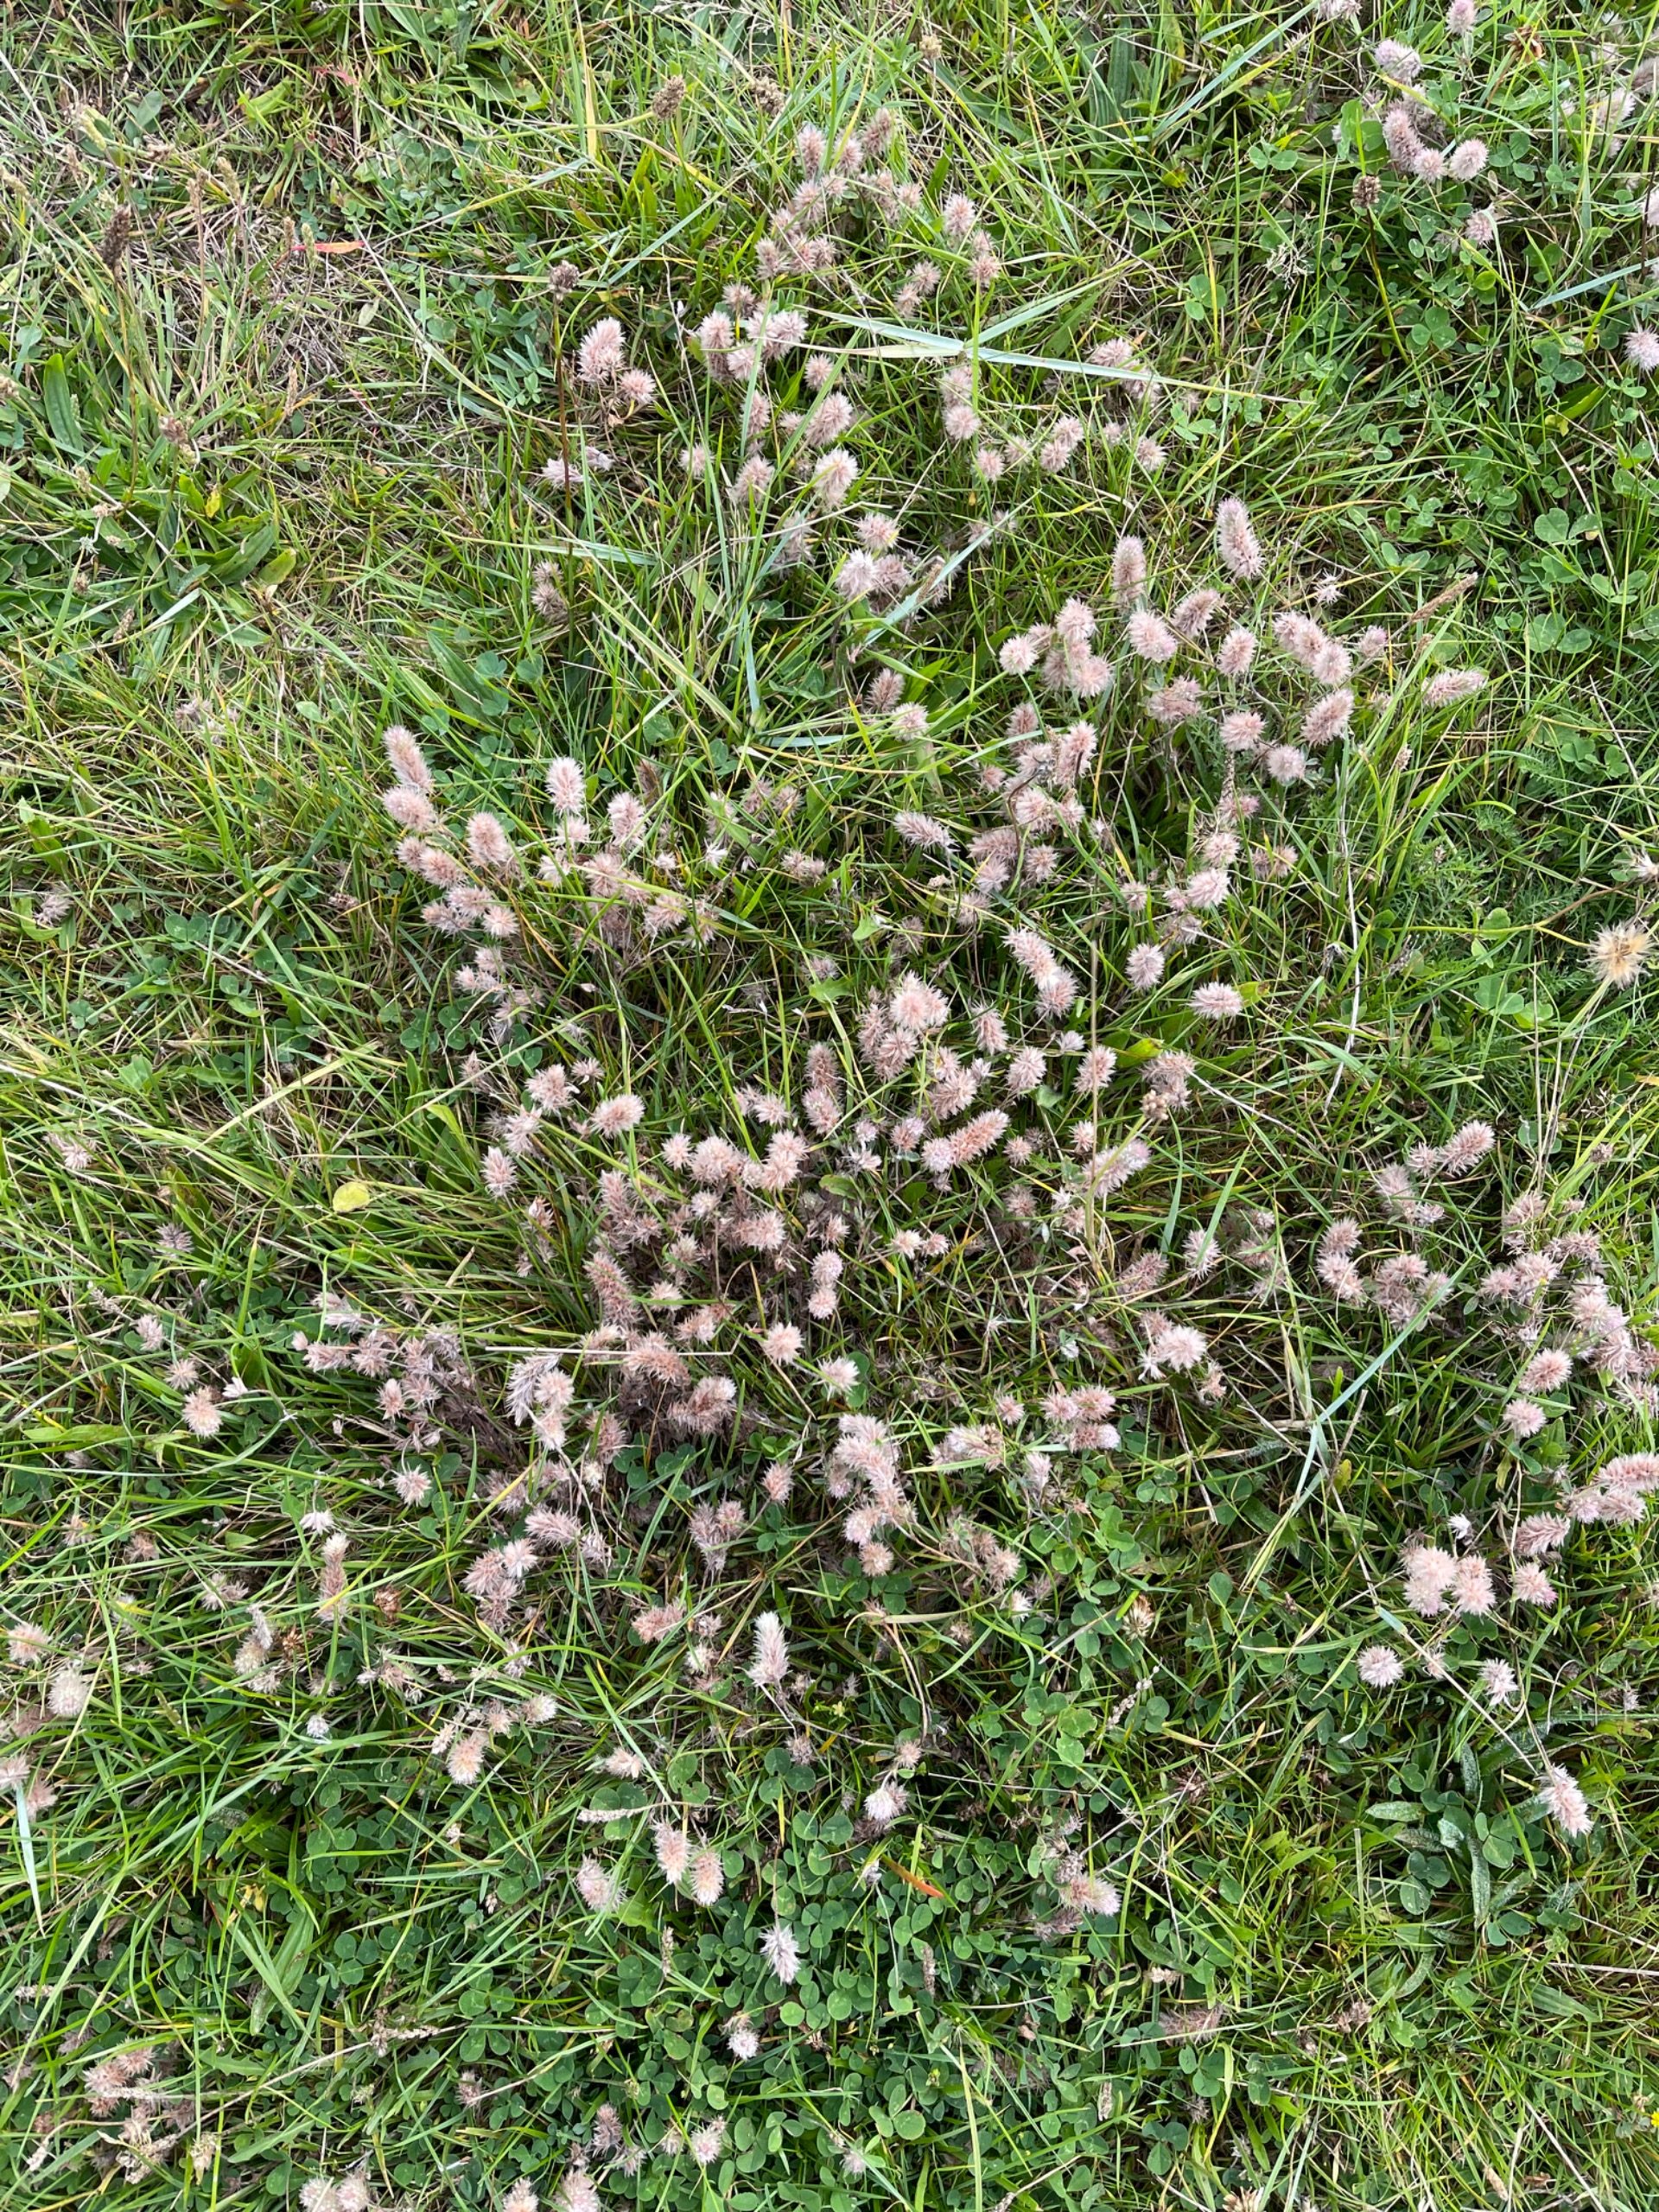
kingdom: Plantae
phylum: Tracheophyta
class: Magnoliopsida
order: Fabales
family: Fabaceae
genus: Trifolium
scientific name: Trifolium arvense
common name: Hare-kløver
